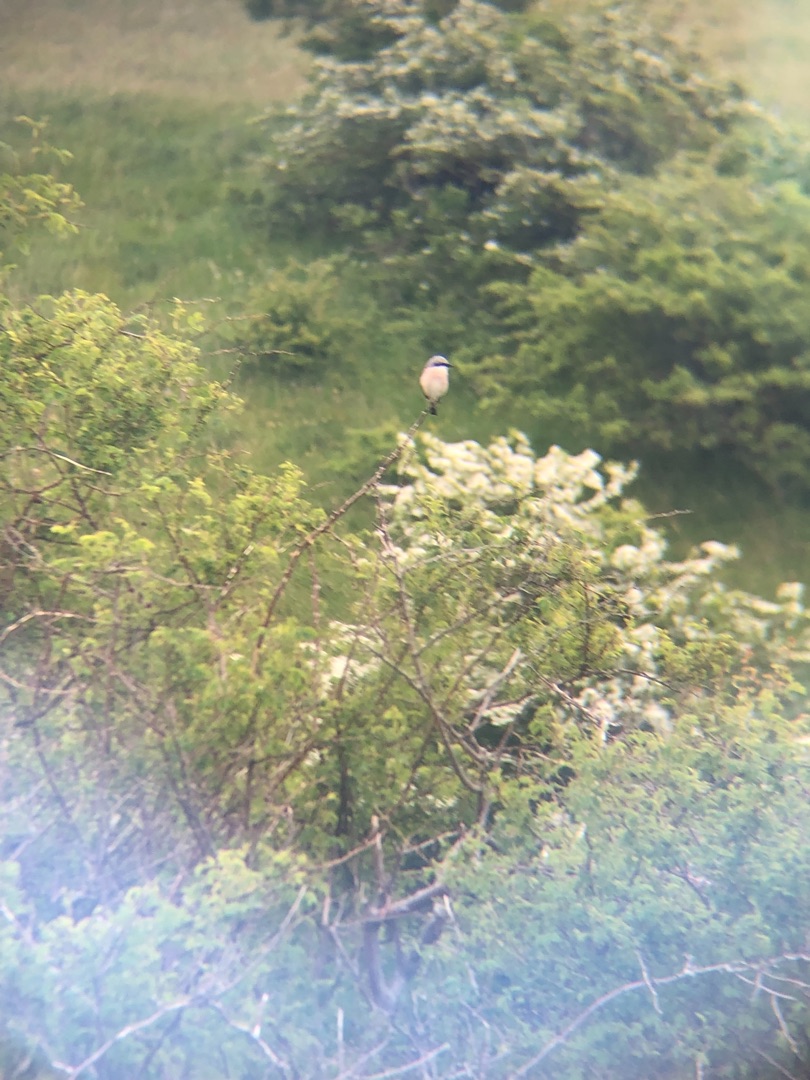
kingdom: Animalia
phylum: Chordata
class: Aves
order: Passeriformes
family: Laniidae
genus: Lanius
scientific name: Lanius collurio
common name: Rødrygget tornskade
